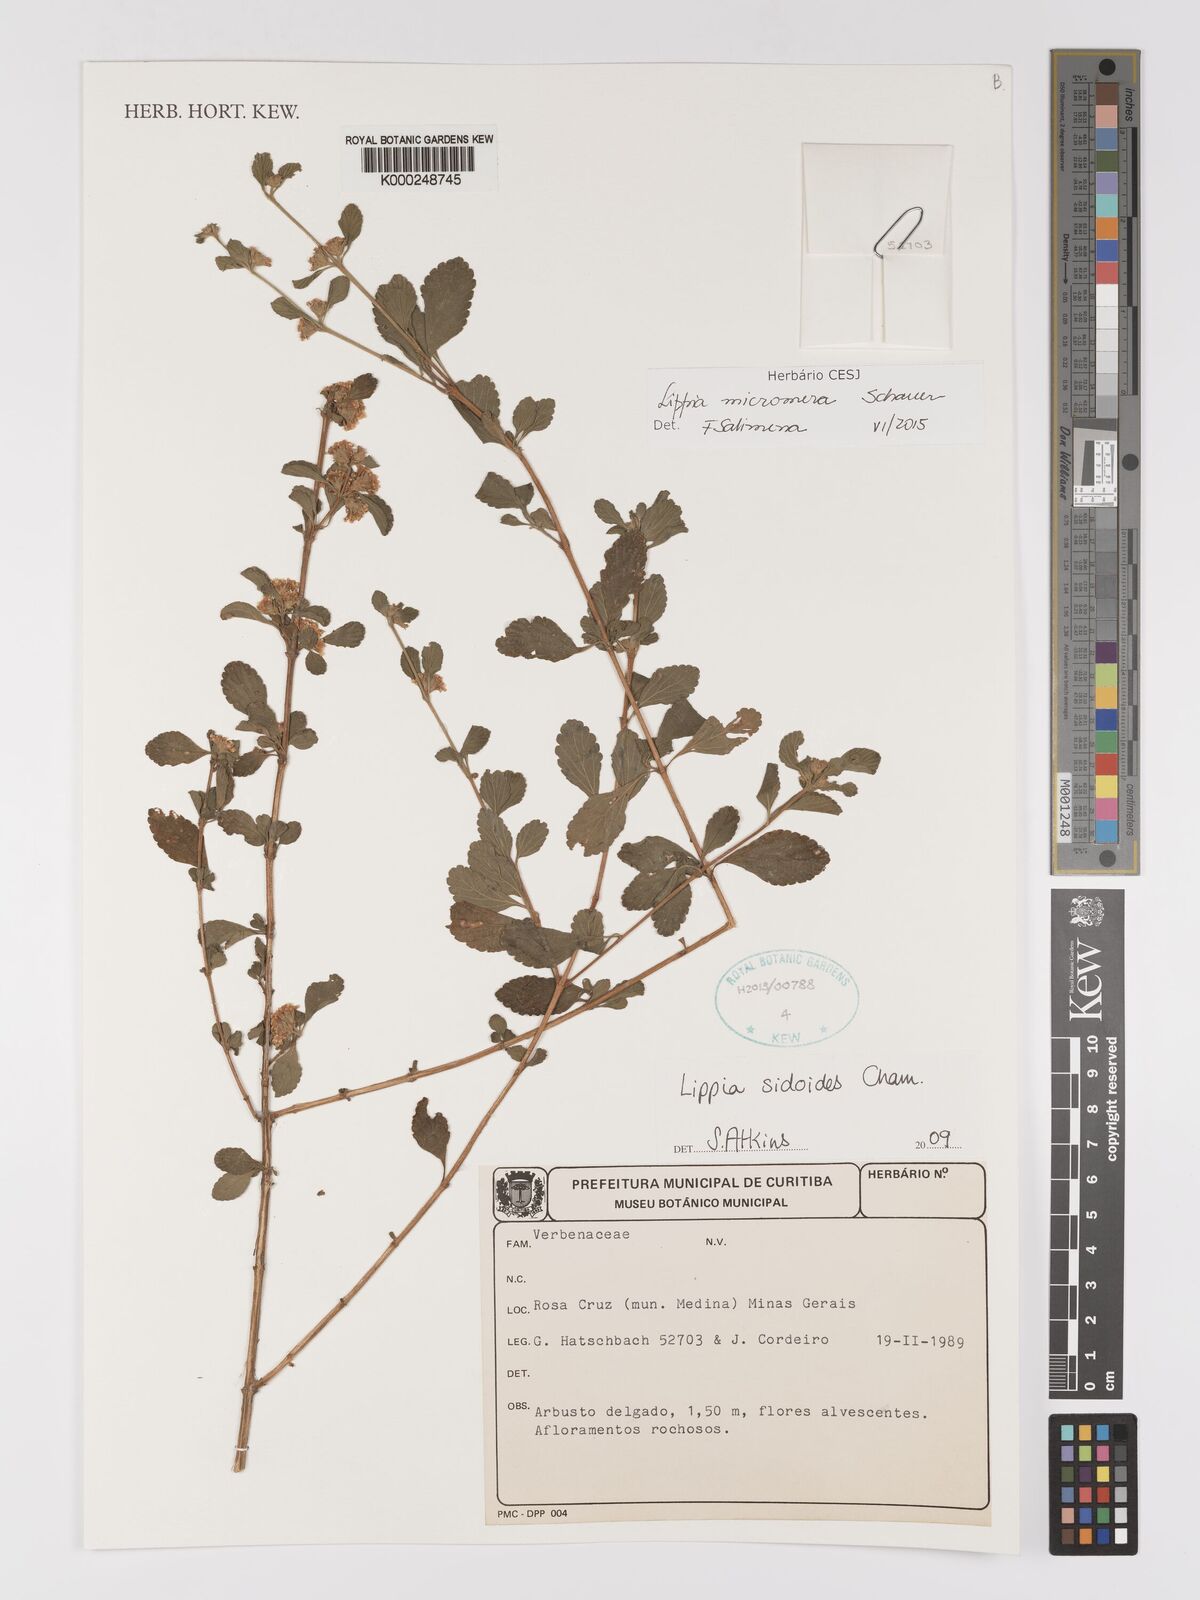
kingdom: Plantae
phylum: Tracheophyta
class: Magnoliopsida
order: Lamiales
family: Verbenaceae
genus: Lippia
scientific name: Lippia origanoides
